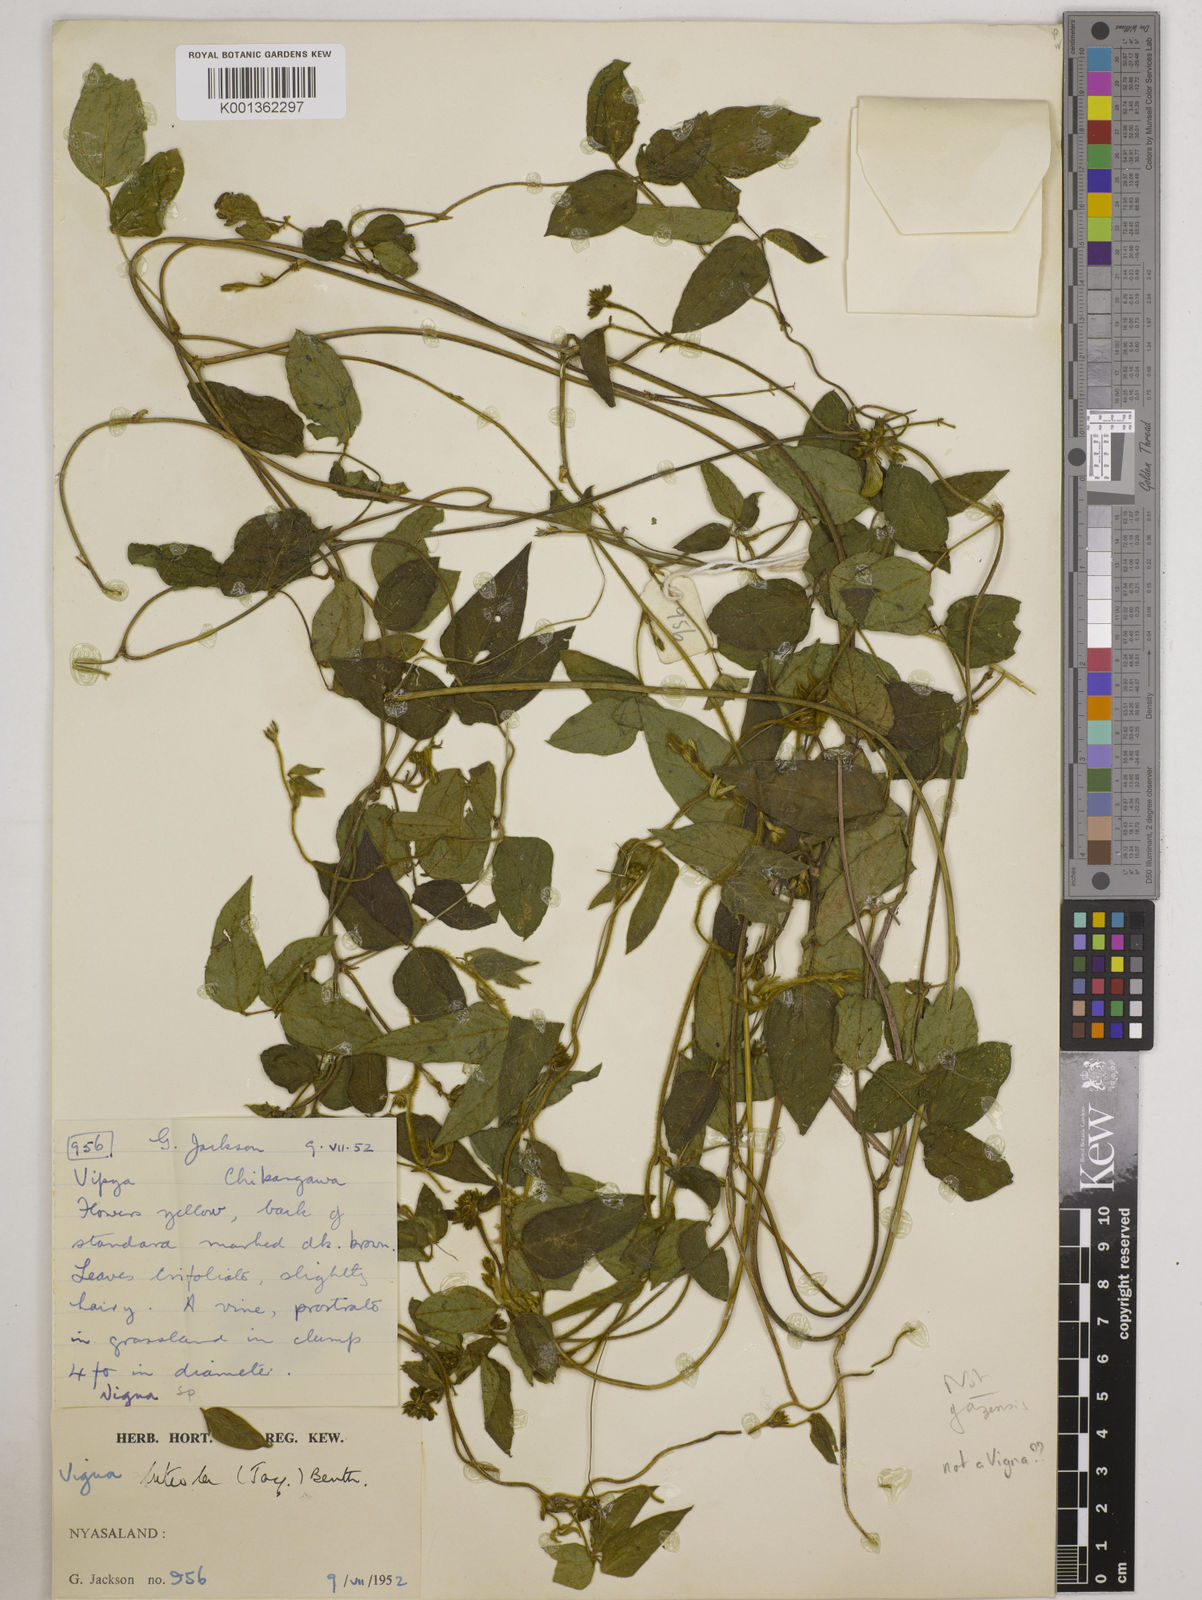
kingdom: Plantae
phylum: Tracheophyta
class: Magnoliopsida
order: Fabales
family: Fabaceae
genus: Vigna
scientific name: Vigna oblongifolia
